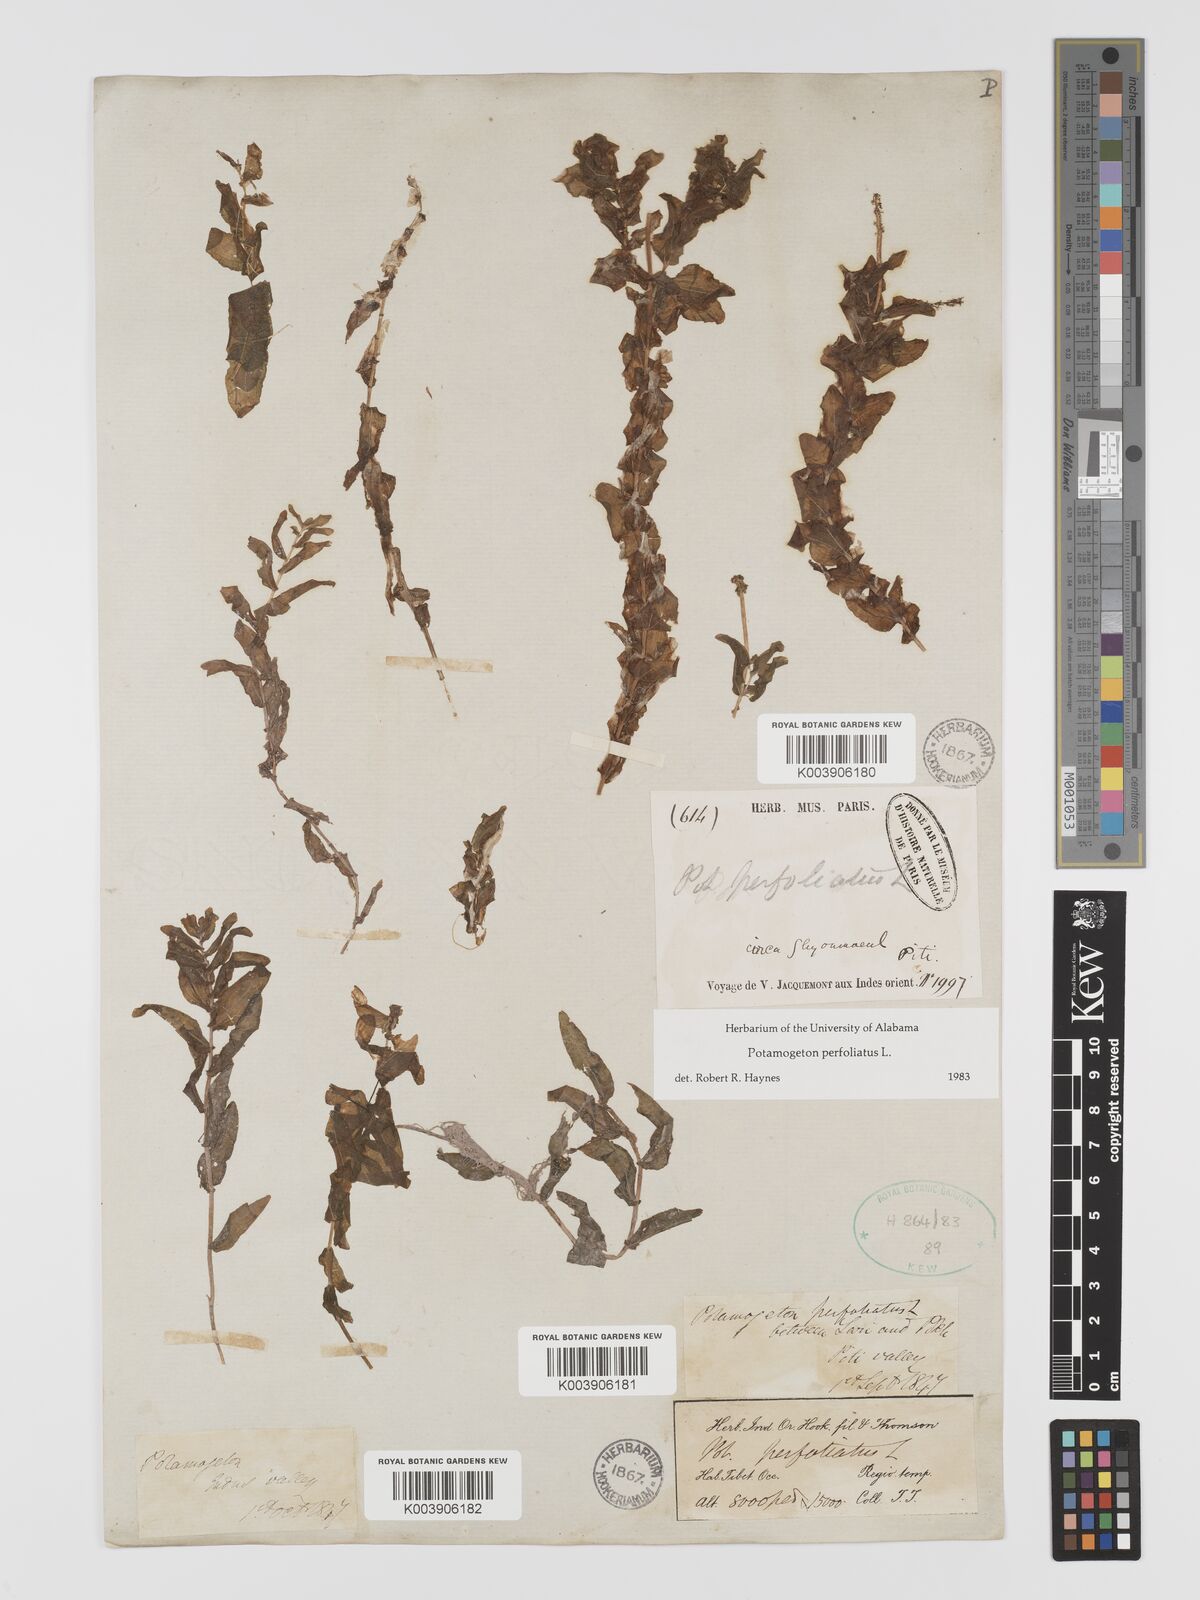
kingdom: Plantae
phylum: Tracheophyta
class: Liliopsida
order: Alismatales
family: Potamogetonaceae
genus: Potamogeton
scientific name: Potamogeton perfoliatus
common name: Perfoliate pondweed
